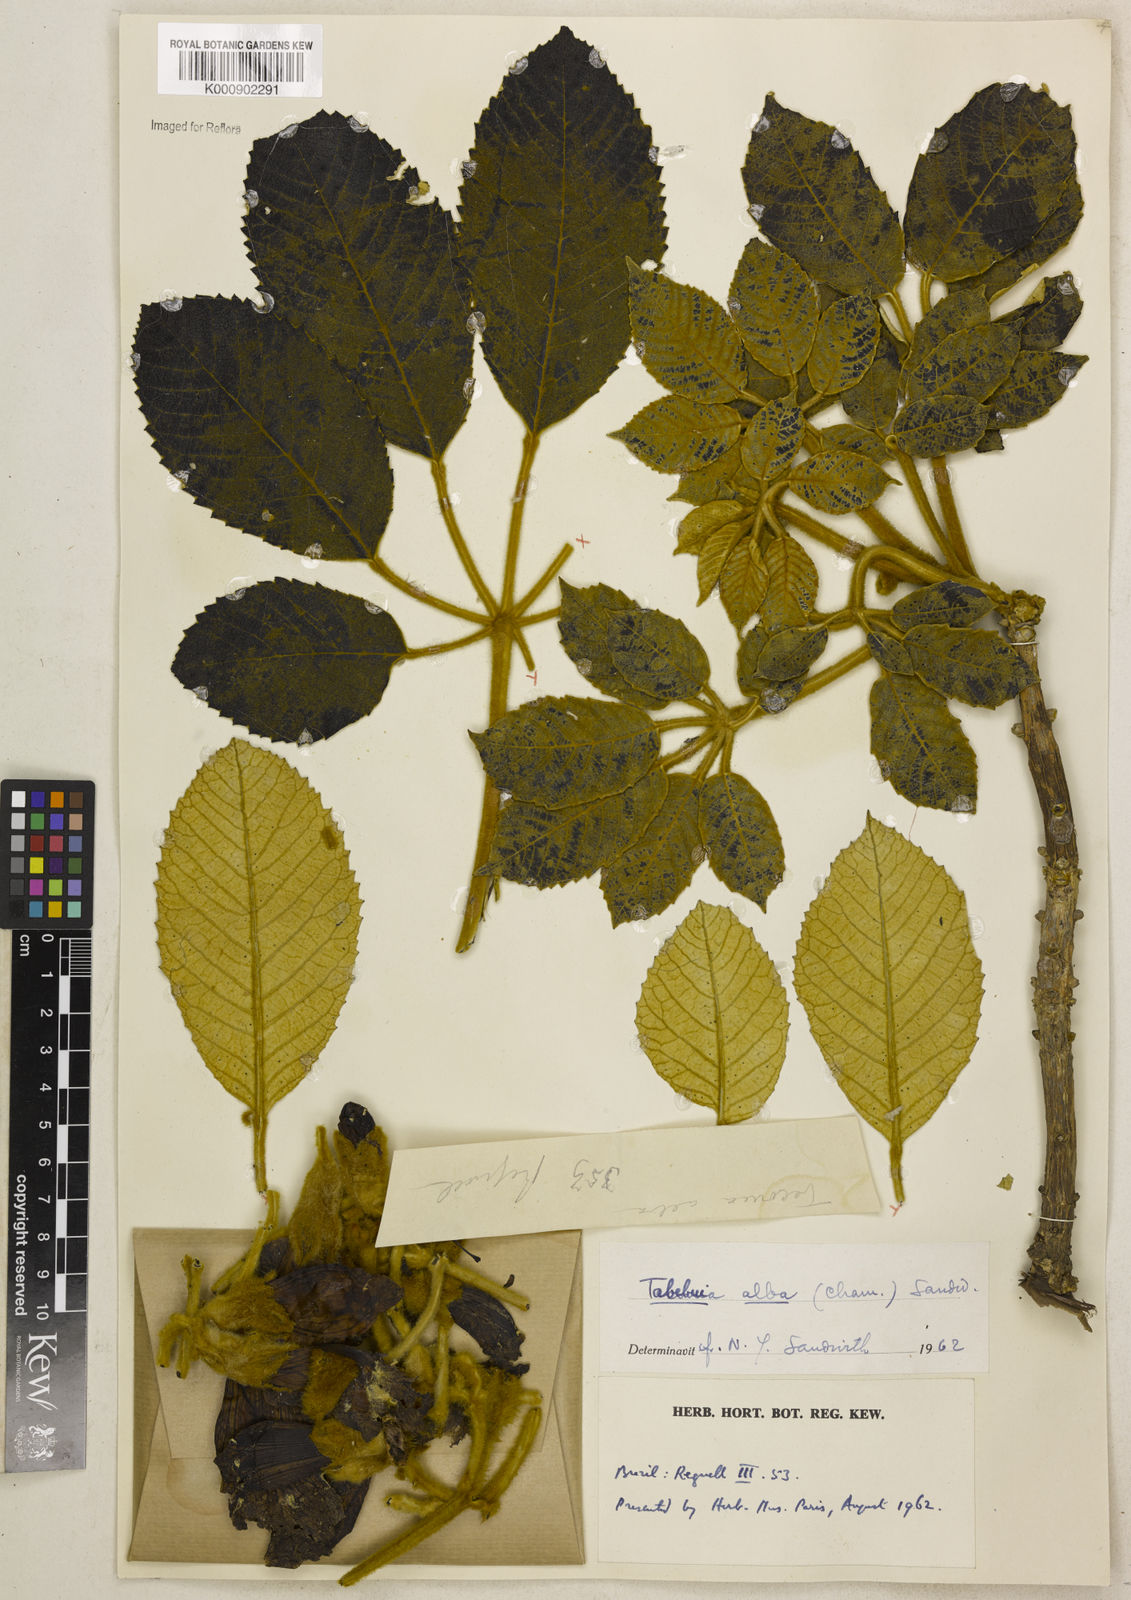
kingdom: Plantae
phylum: Tracheophyta
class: Magnoliopsida
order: Lamiales
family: Bignoniaceae
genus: Handroanthus
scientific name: Handroanthus albus
